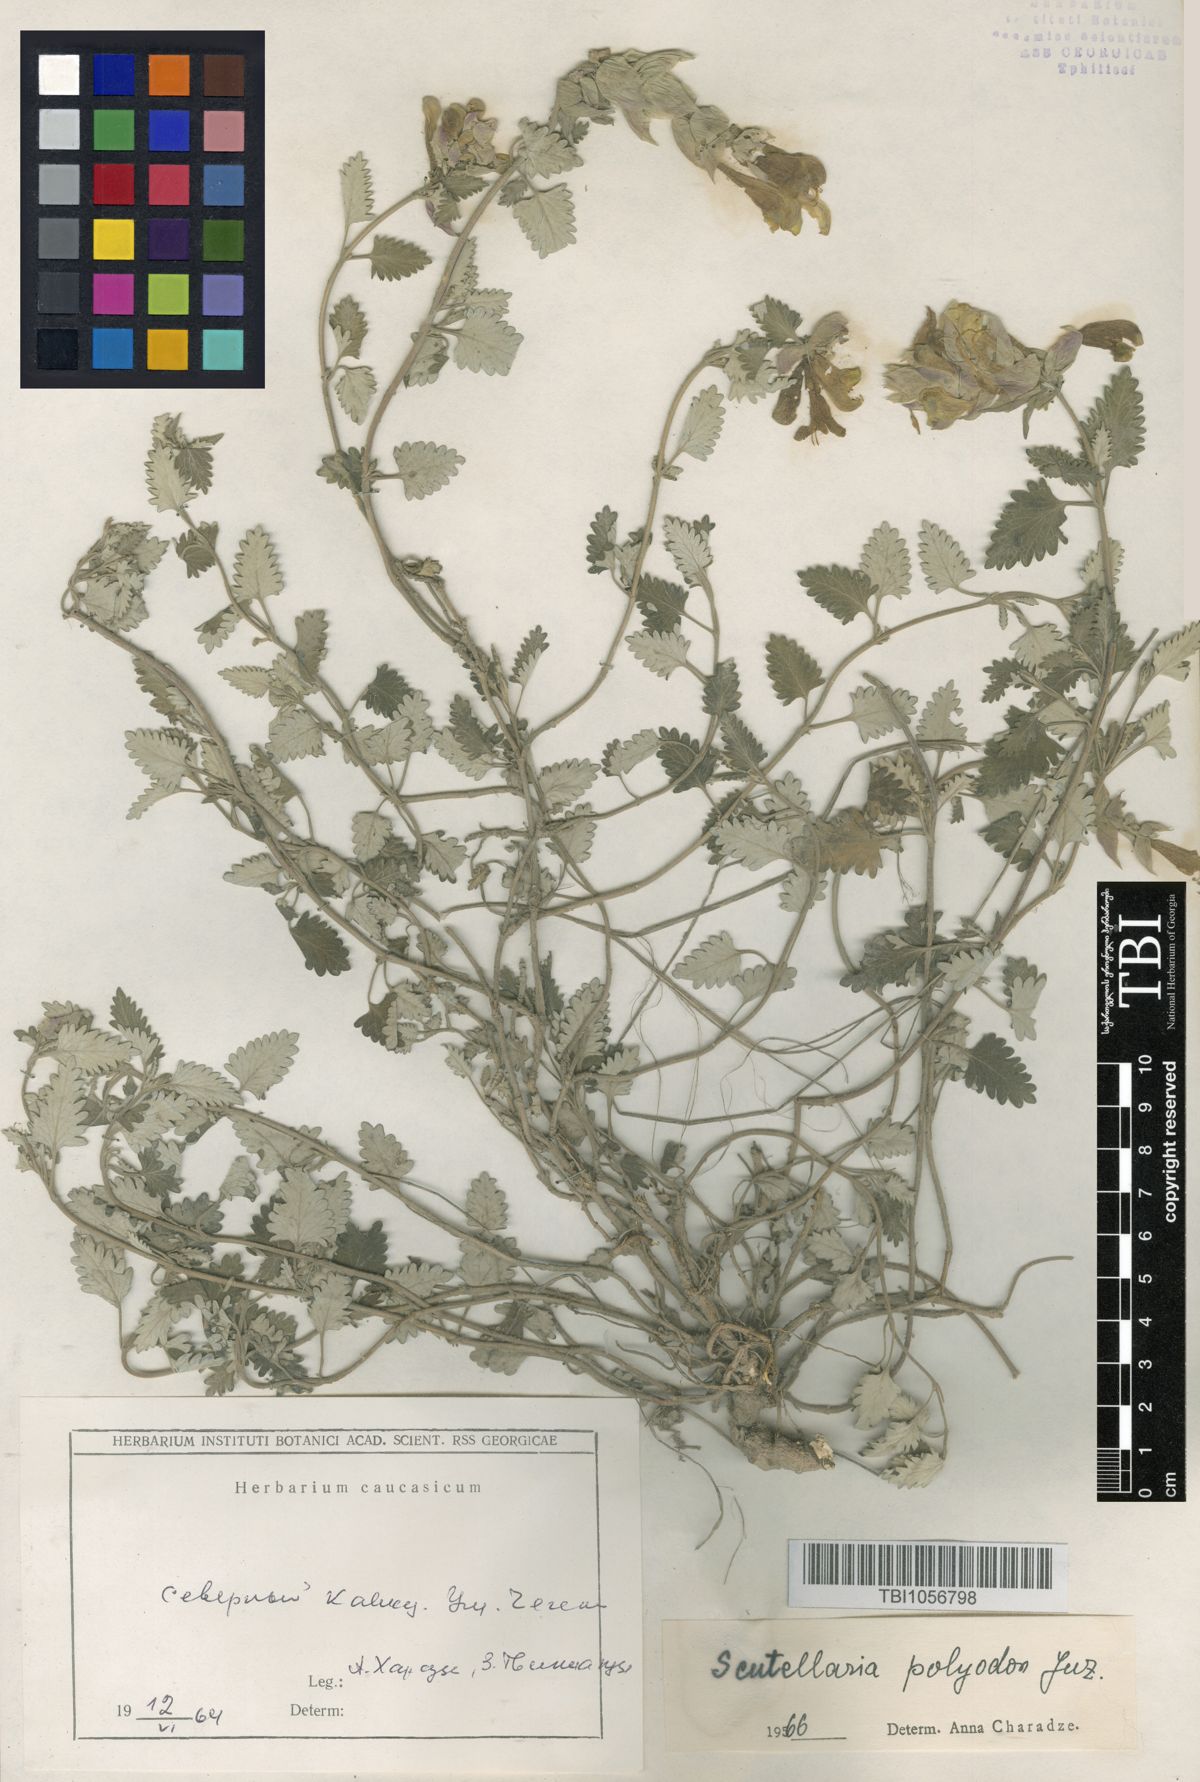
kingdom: Plantae
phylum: Tracheophyta
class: Magnoliopsida
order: Lamiales
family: Lamiaceae
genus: Scutellaria
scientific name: Scutellaria caucasica
